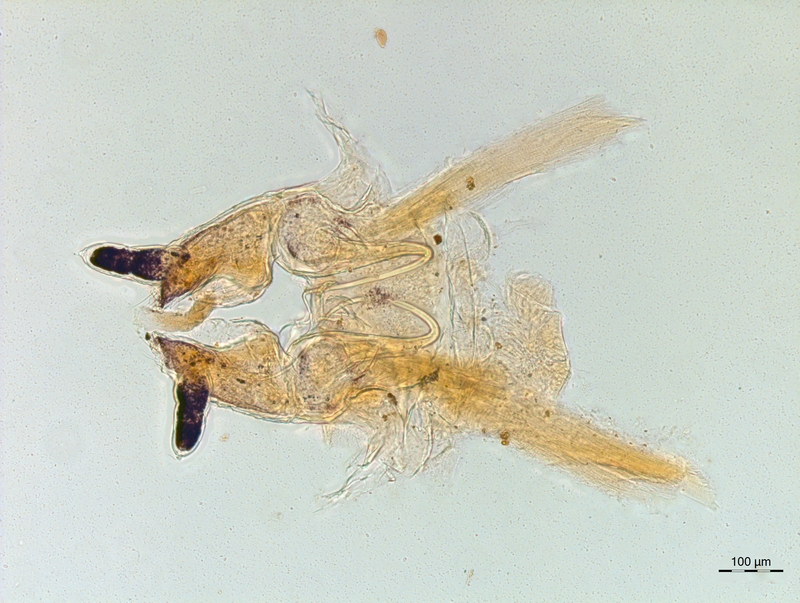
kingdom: Animalia
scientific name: Animalia
